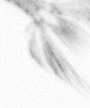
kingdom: Animalia
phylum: Arthropoda
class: Copepoda
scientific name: Copepoda
